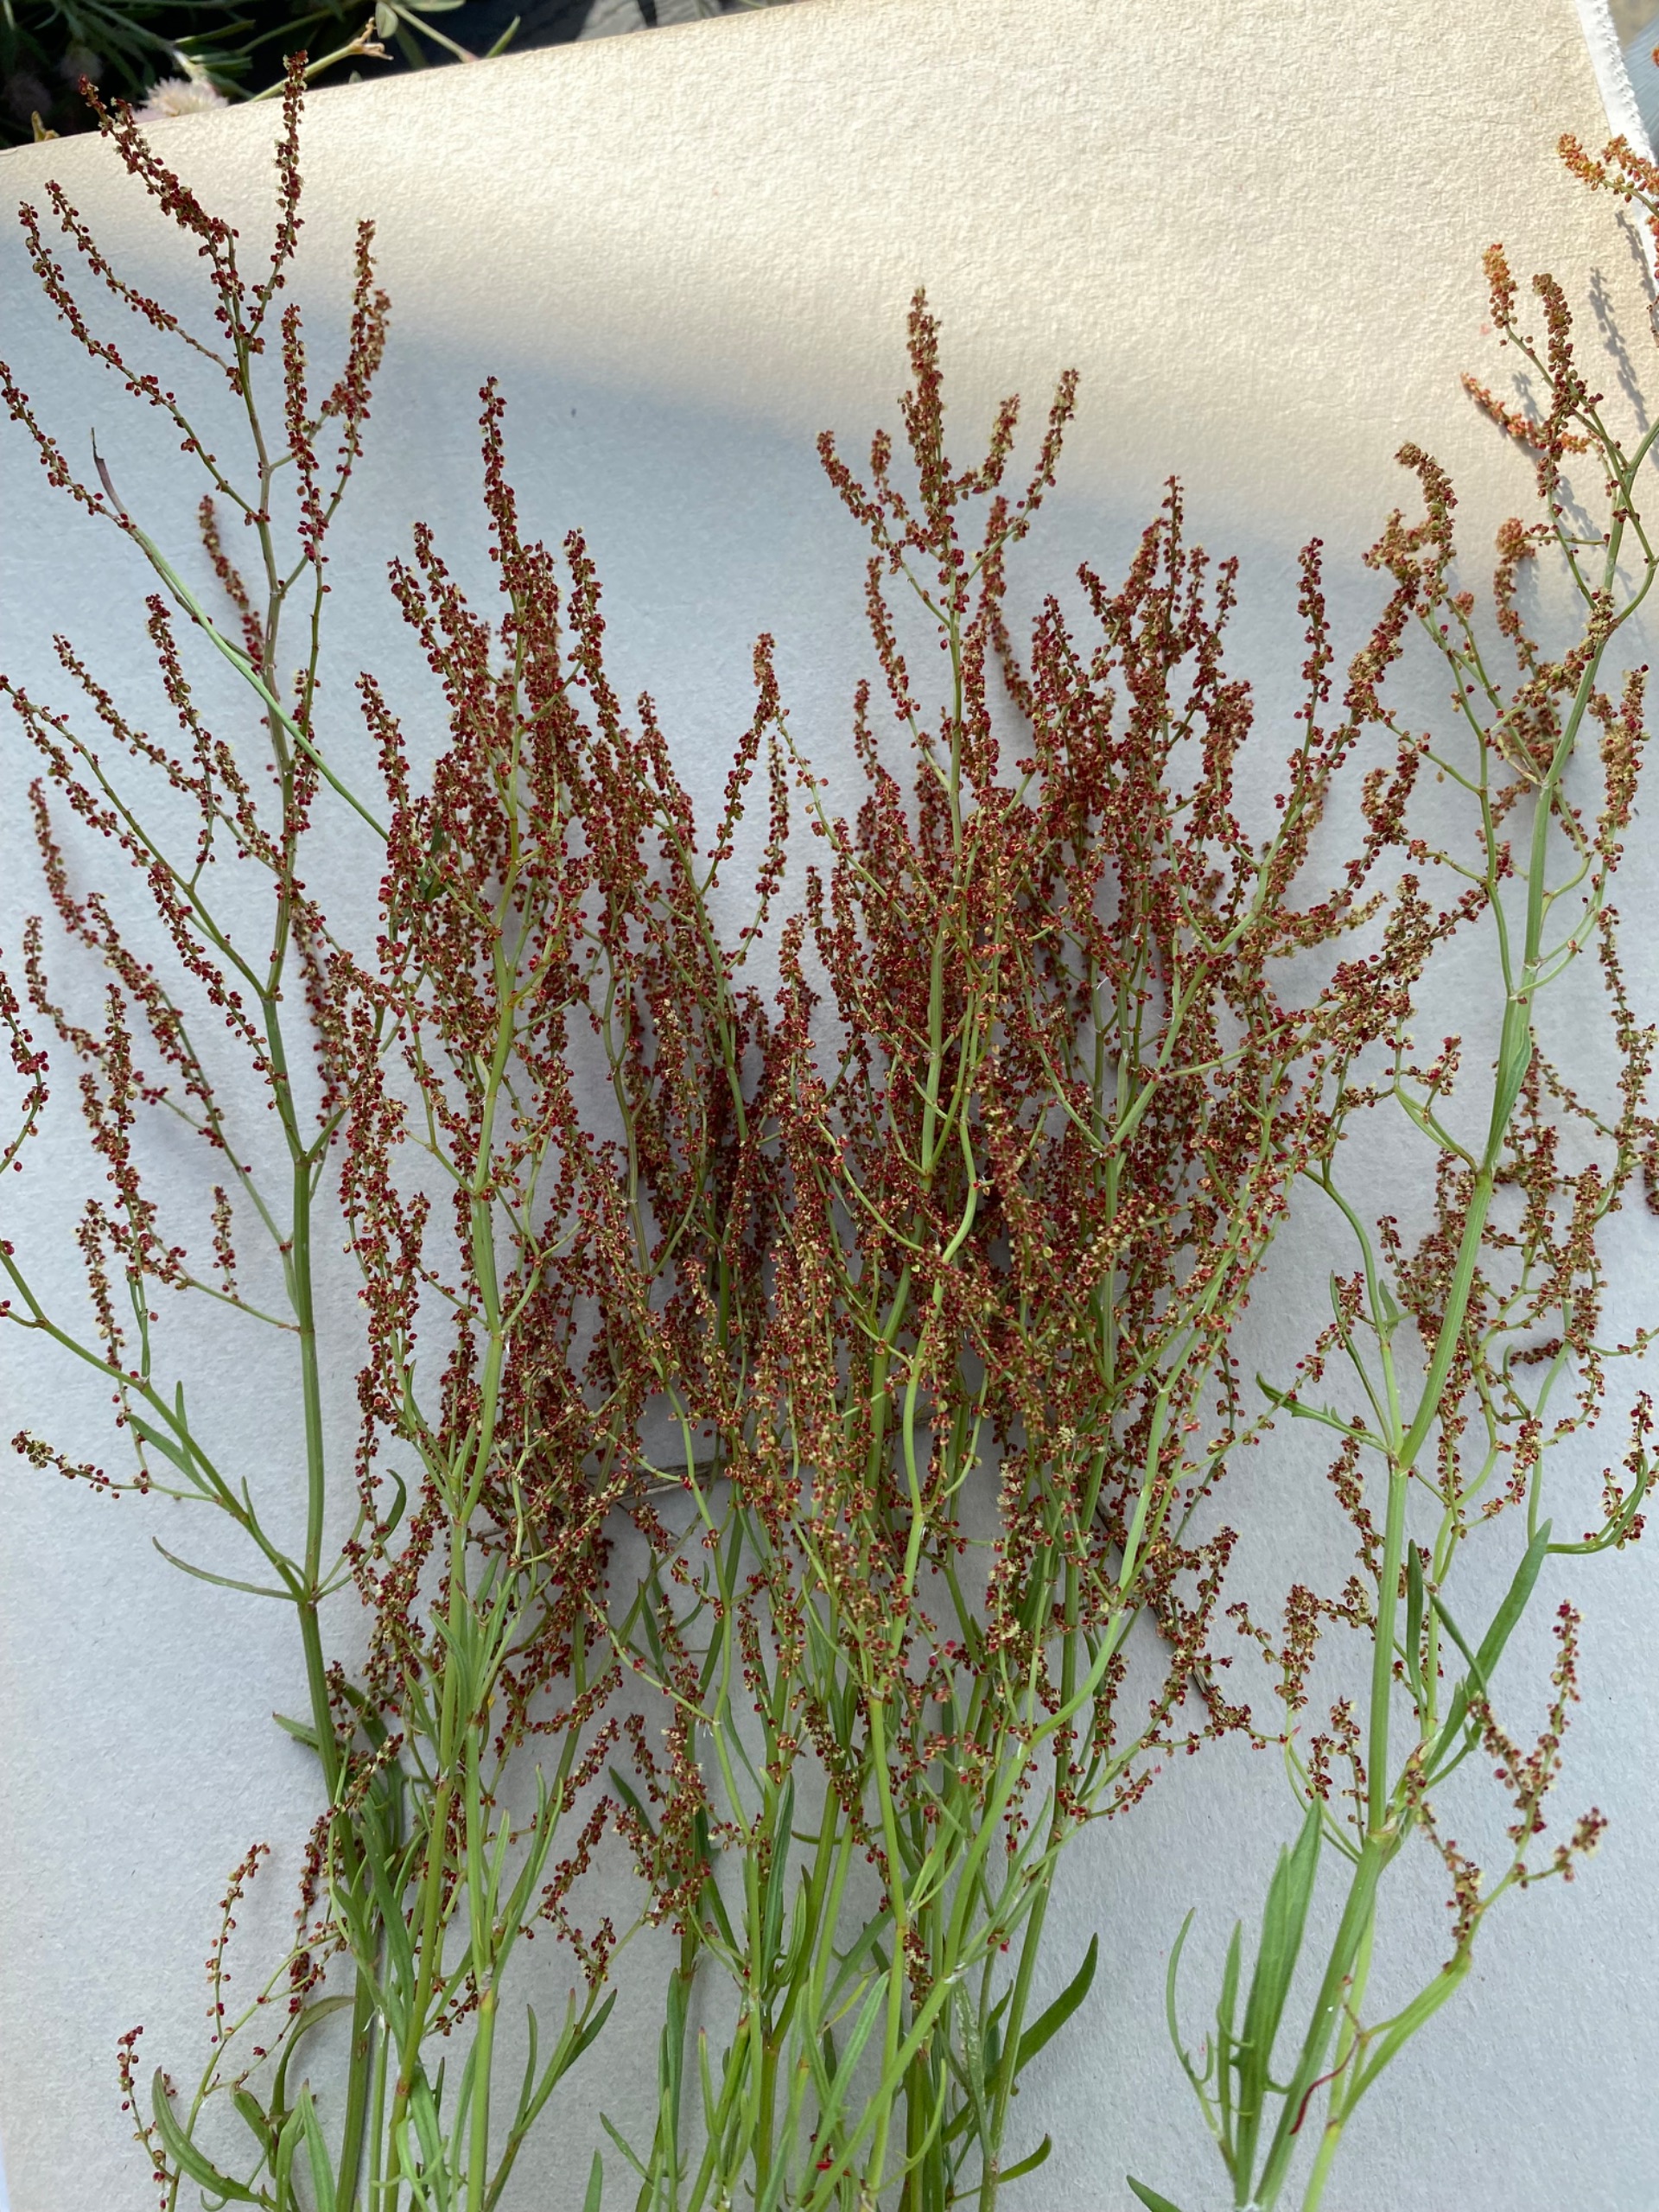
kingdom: Plantae
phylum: Tracheophyta
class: Magnoliopsida
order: Caryophyllales
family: Polygonaceae
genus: Rumex
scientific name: Rumex acetosella
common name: Rødknæ
